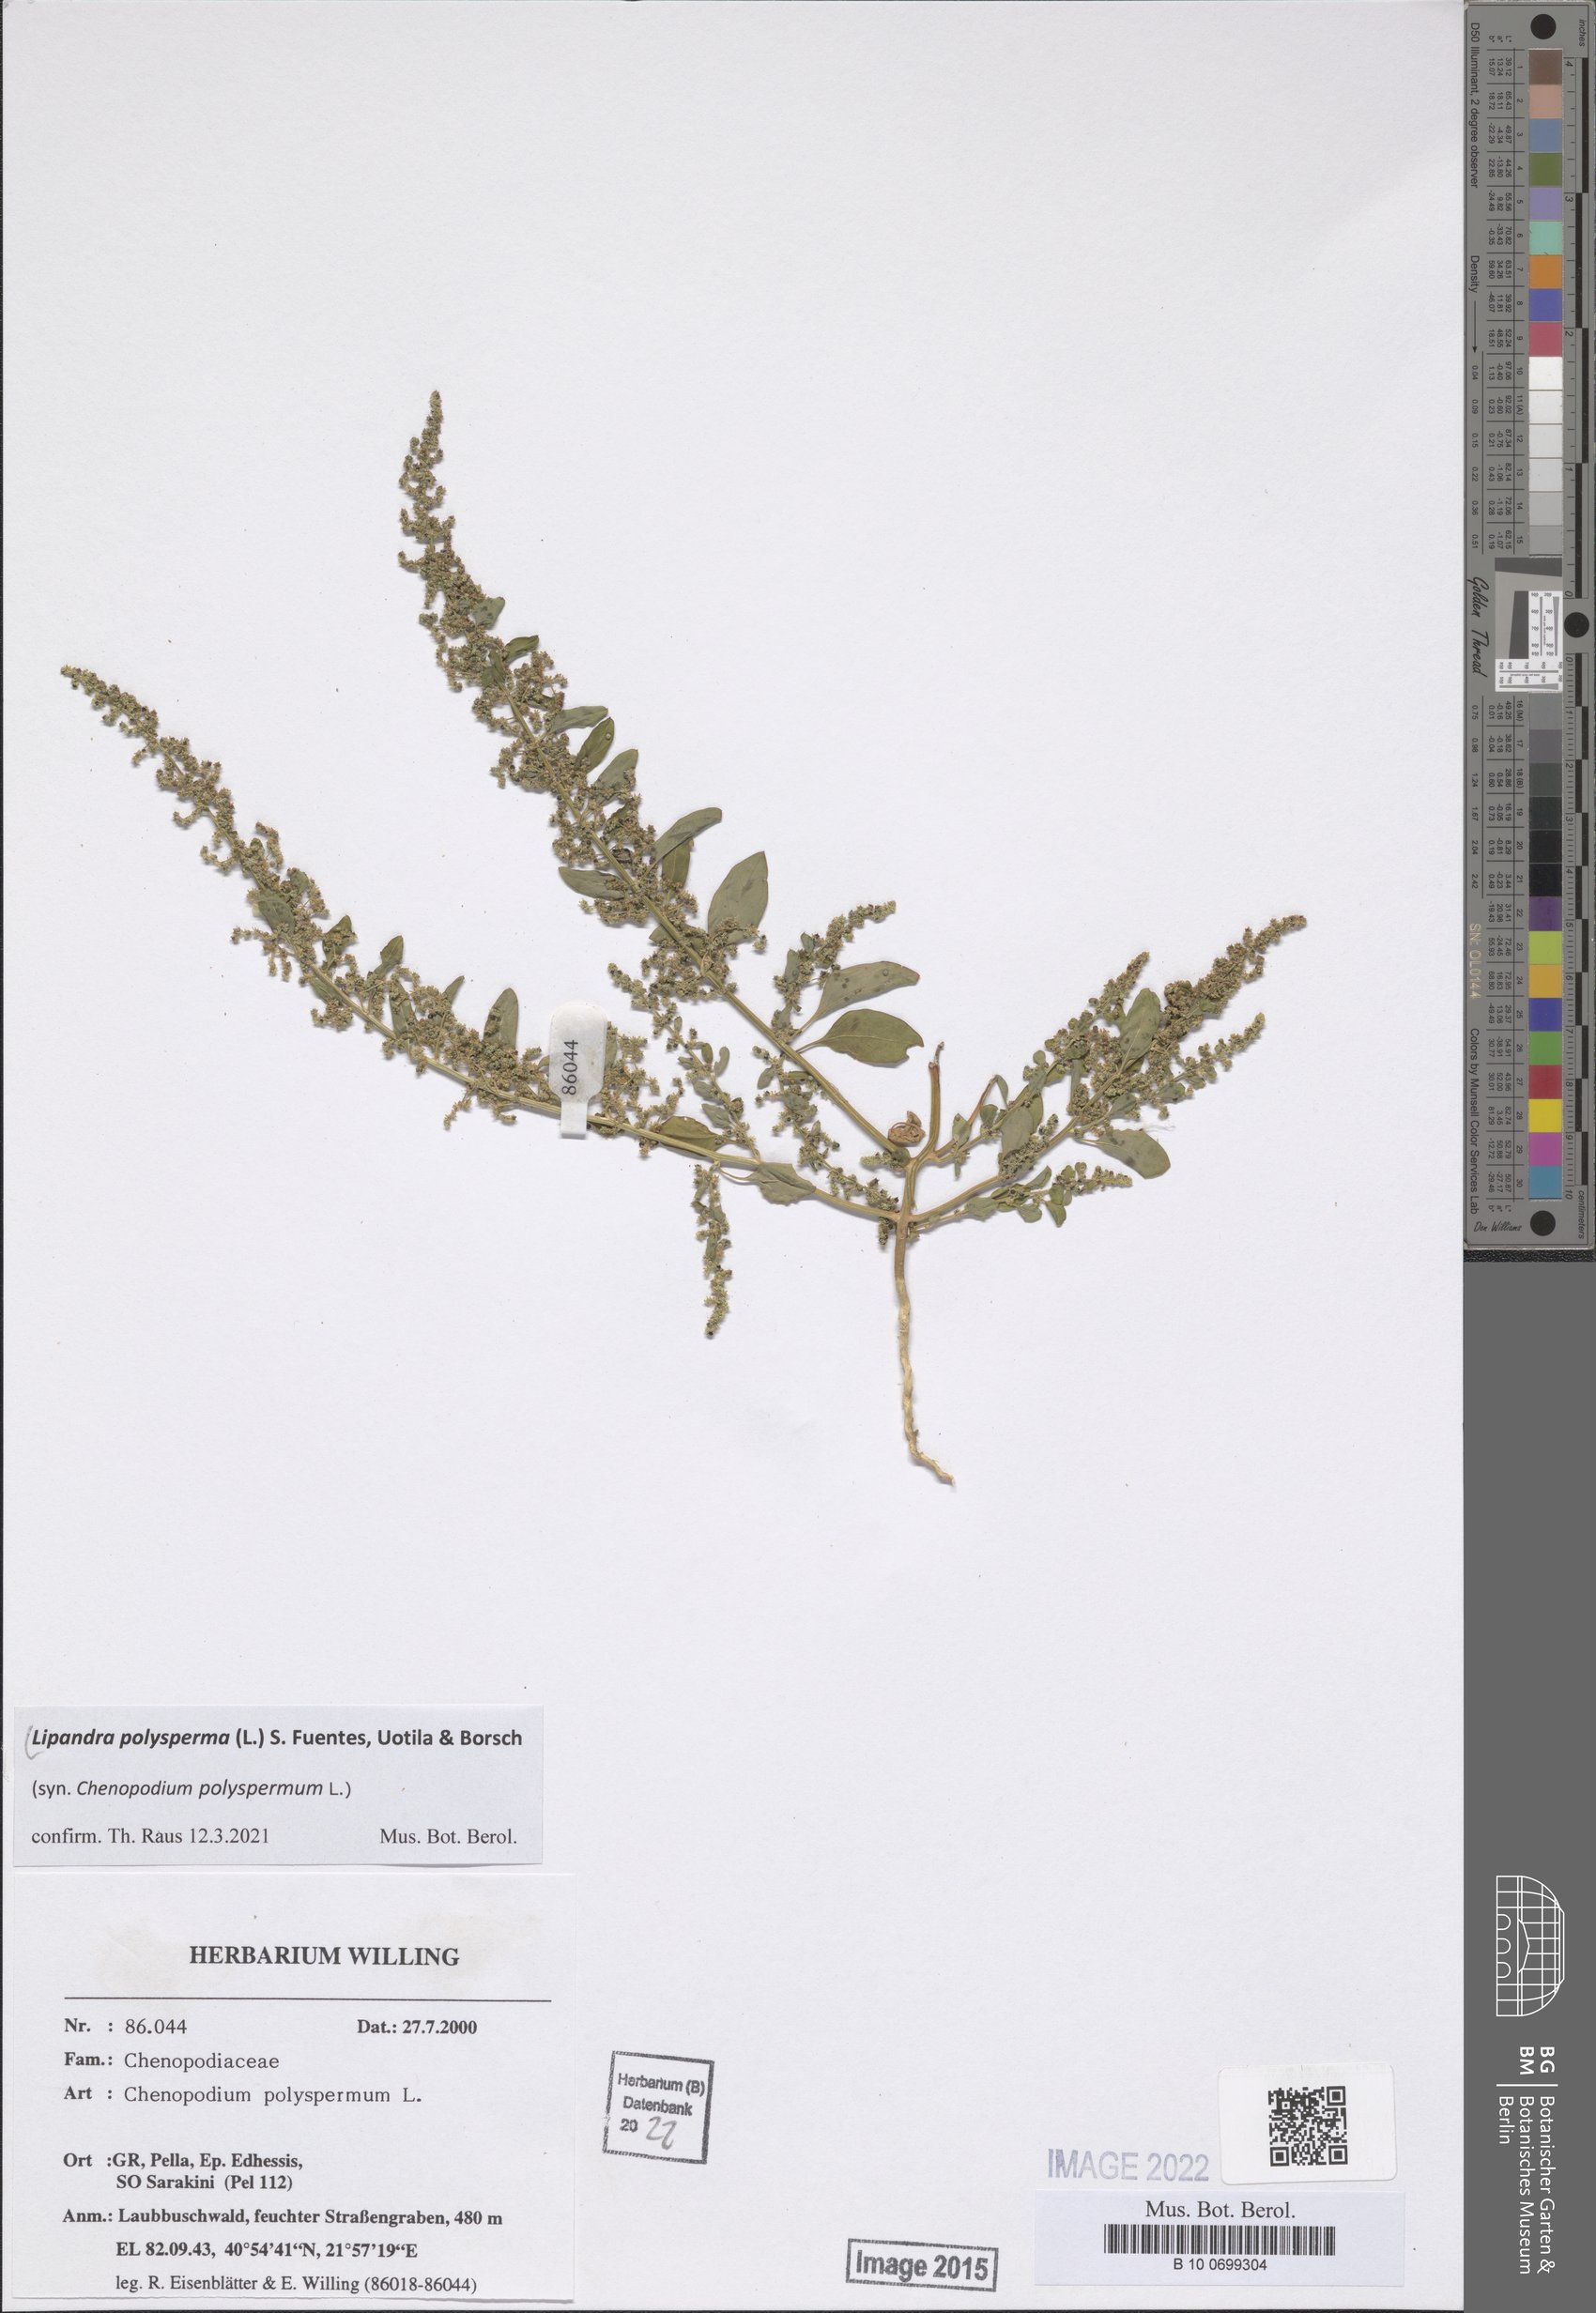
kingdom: Plantae
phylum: Tracheophyta
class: Magnoliopsida
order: Caryophyllales
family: Amaranthaceae
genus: Lipandra
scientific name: Lipandra polysperma
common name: Many-seed goosefoot
